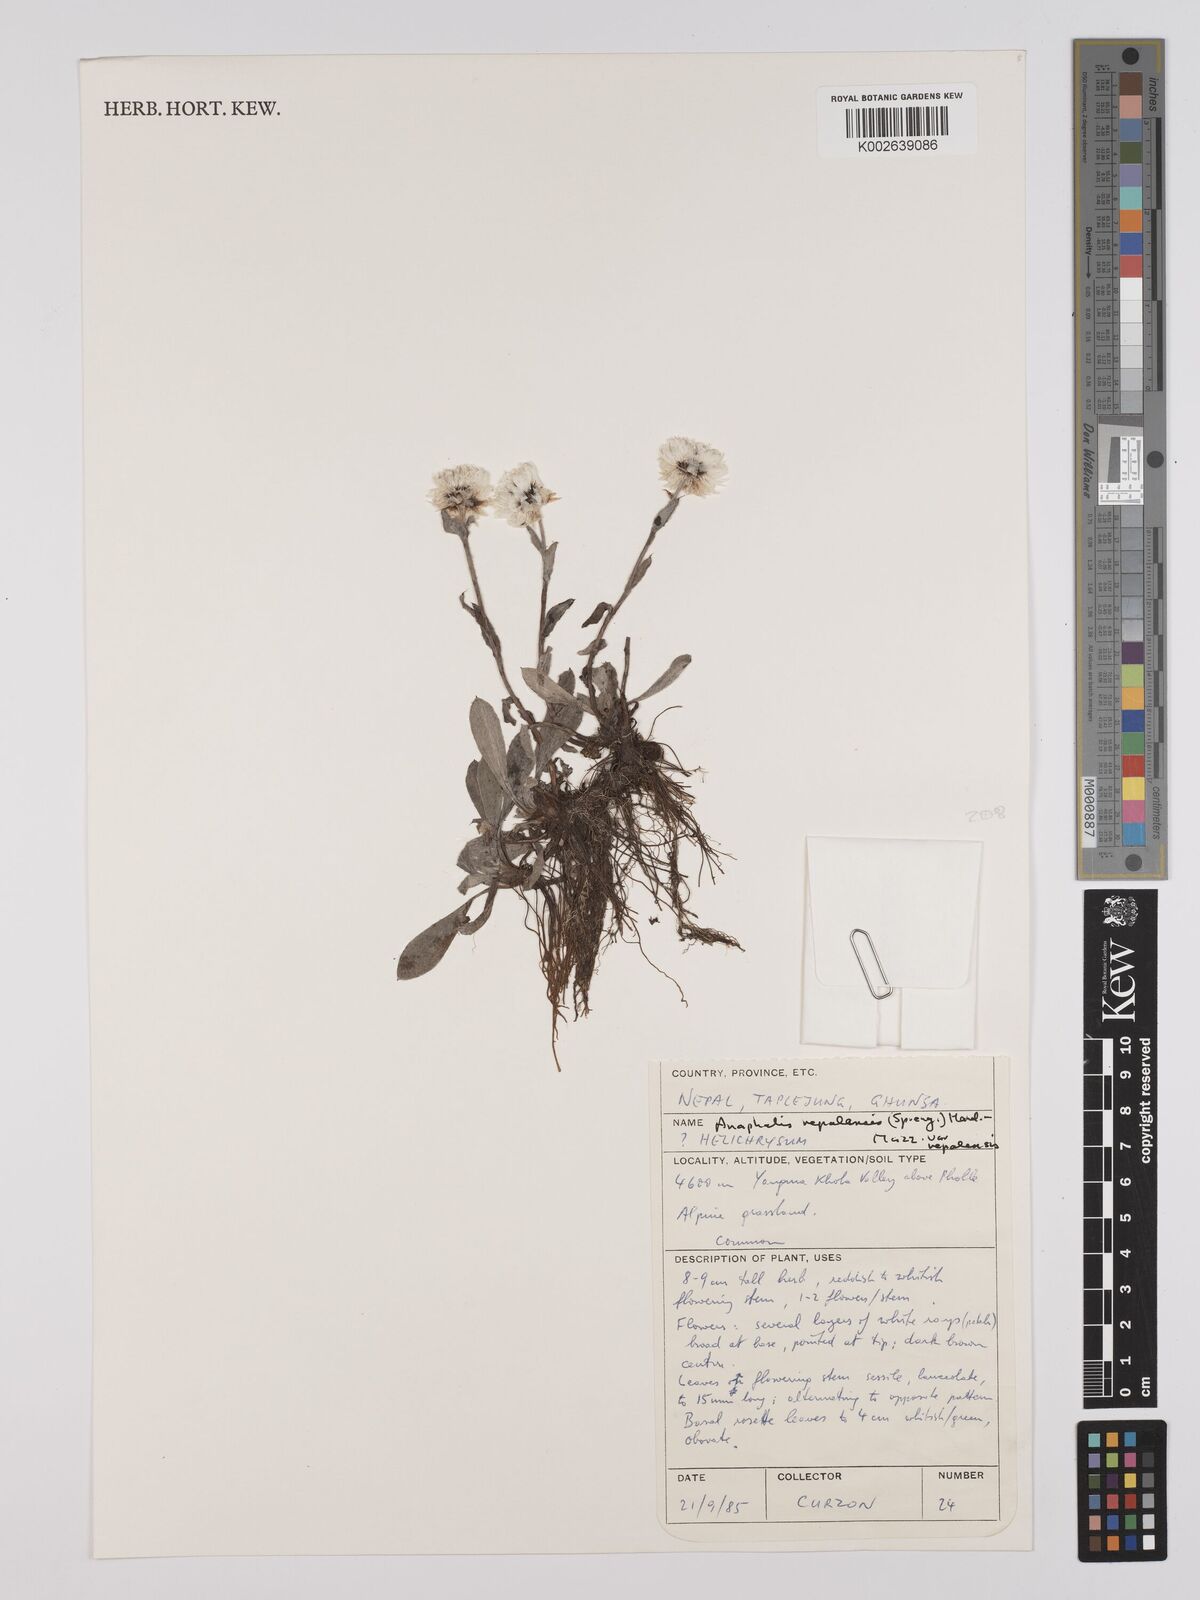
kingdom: Plantae
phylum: Tracheophyta
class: Magnoliopsida
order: Asterales
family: Asteraceae
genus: Anaphalis
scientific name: Anaphalis nepalensis
